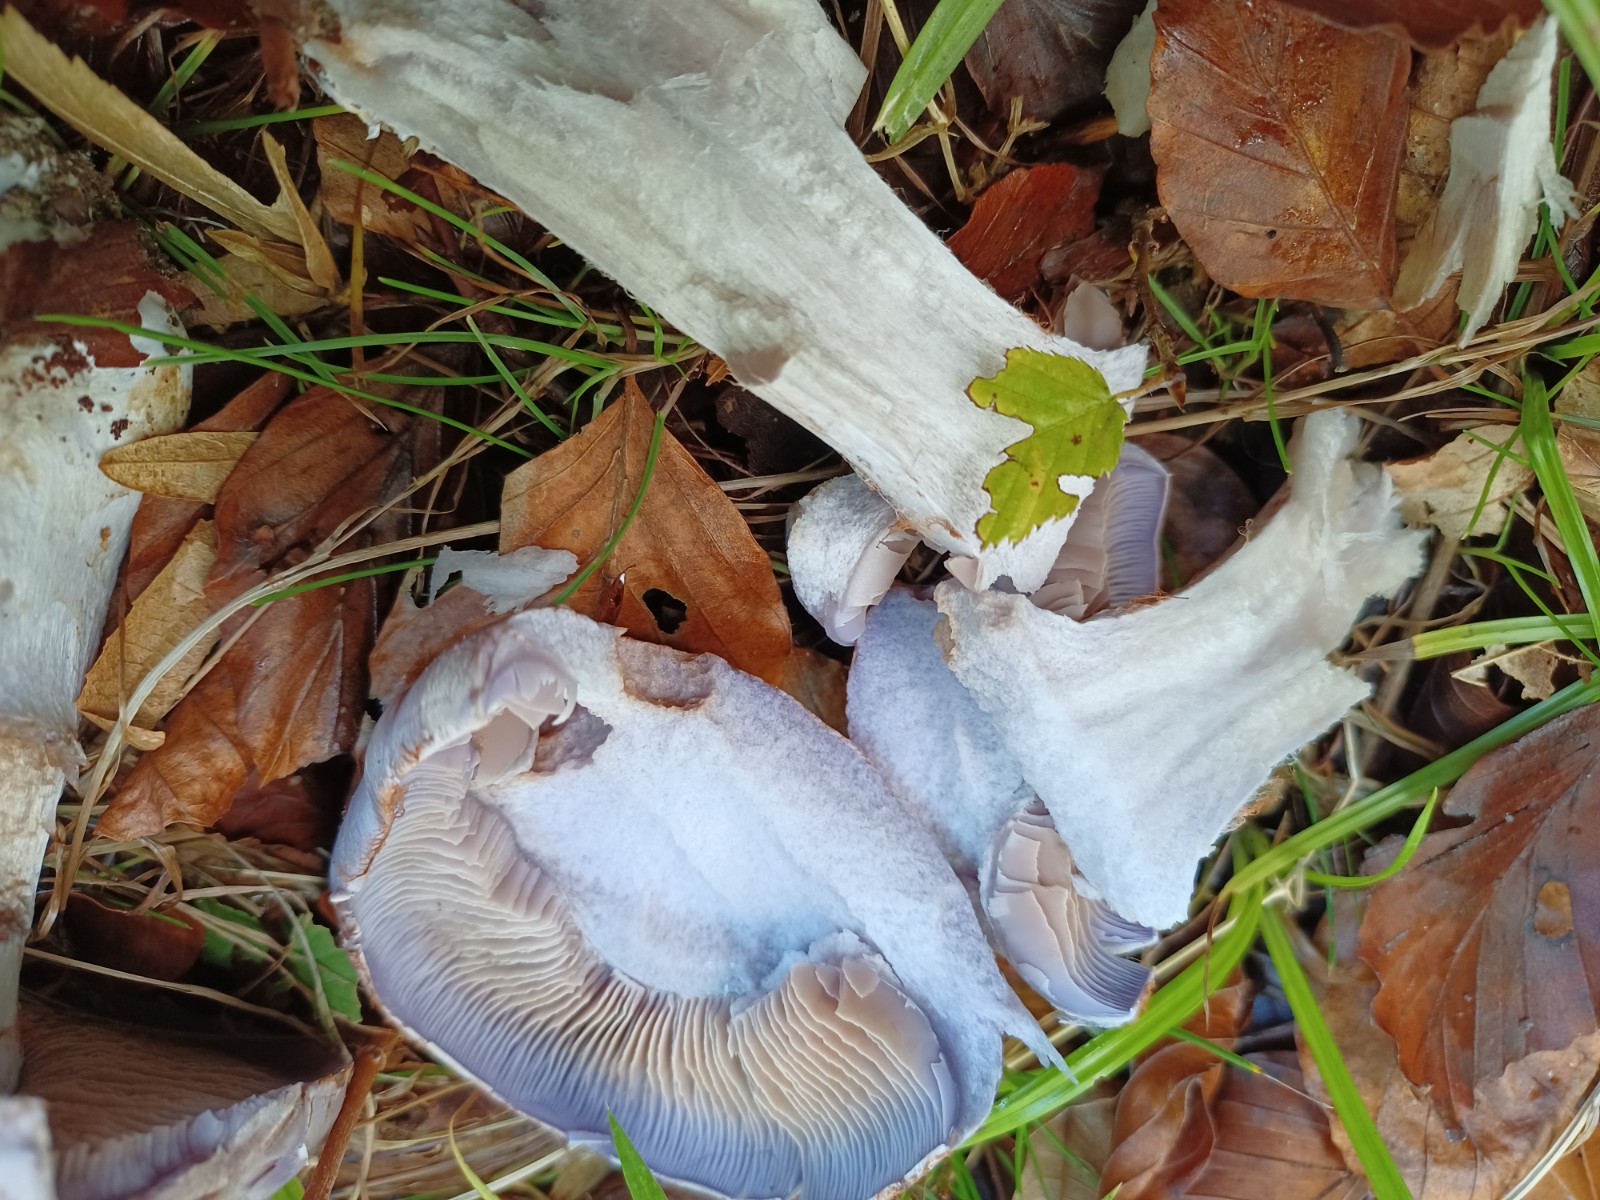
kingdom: Fungi
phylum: Basidiomycota
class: Agaricomycetes
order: Agaricales
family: Cortinariaceae
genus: Cortinarius
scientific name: Cortinarius largus
